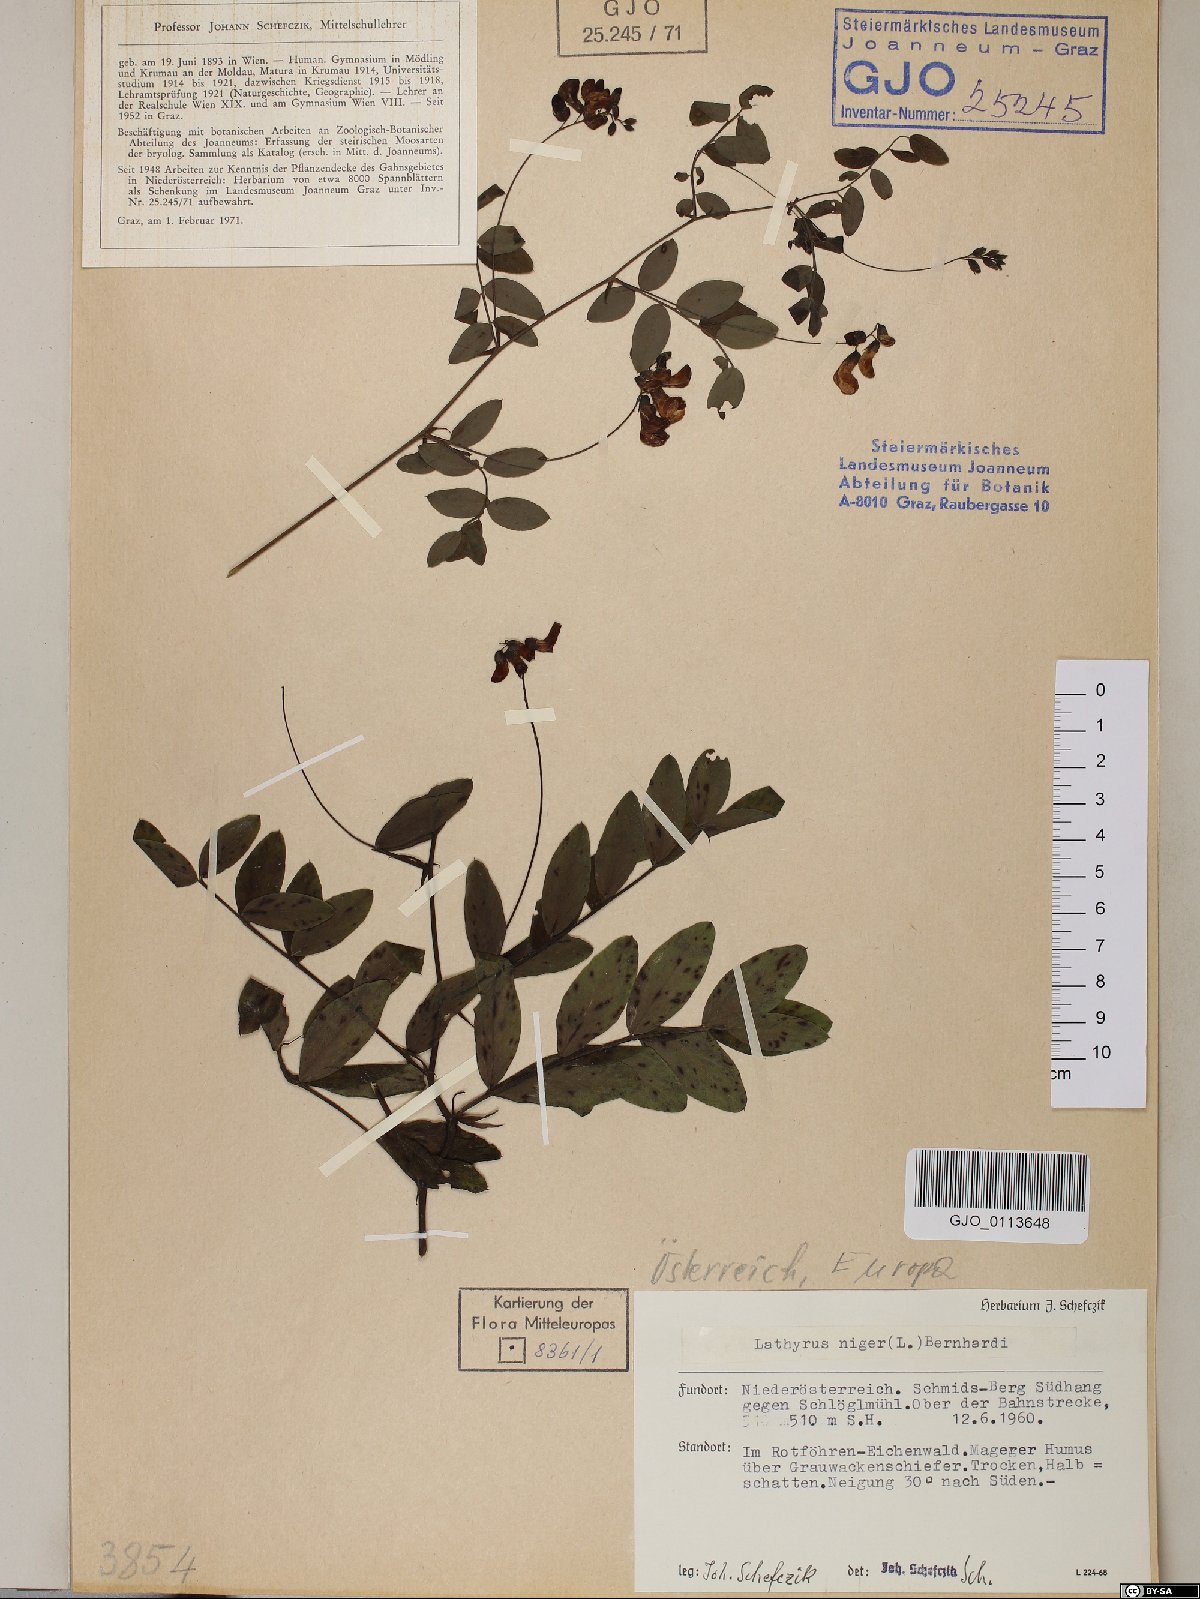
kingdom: Plantae
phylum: Tracheophyta
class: Magnoliopsida
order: Fabales
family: Fabaceae
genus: Lathyrus
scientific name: Lathyrus niger
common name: Black pea
